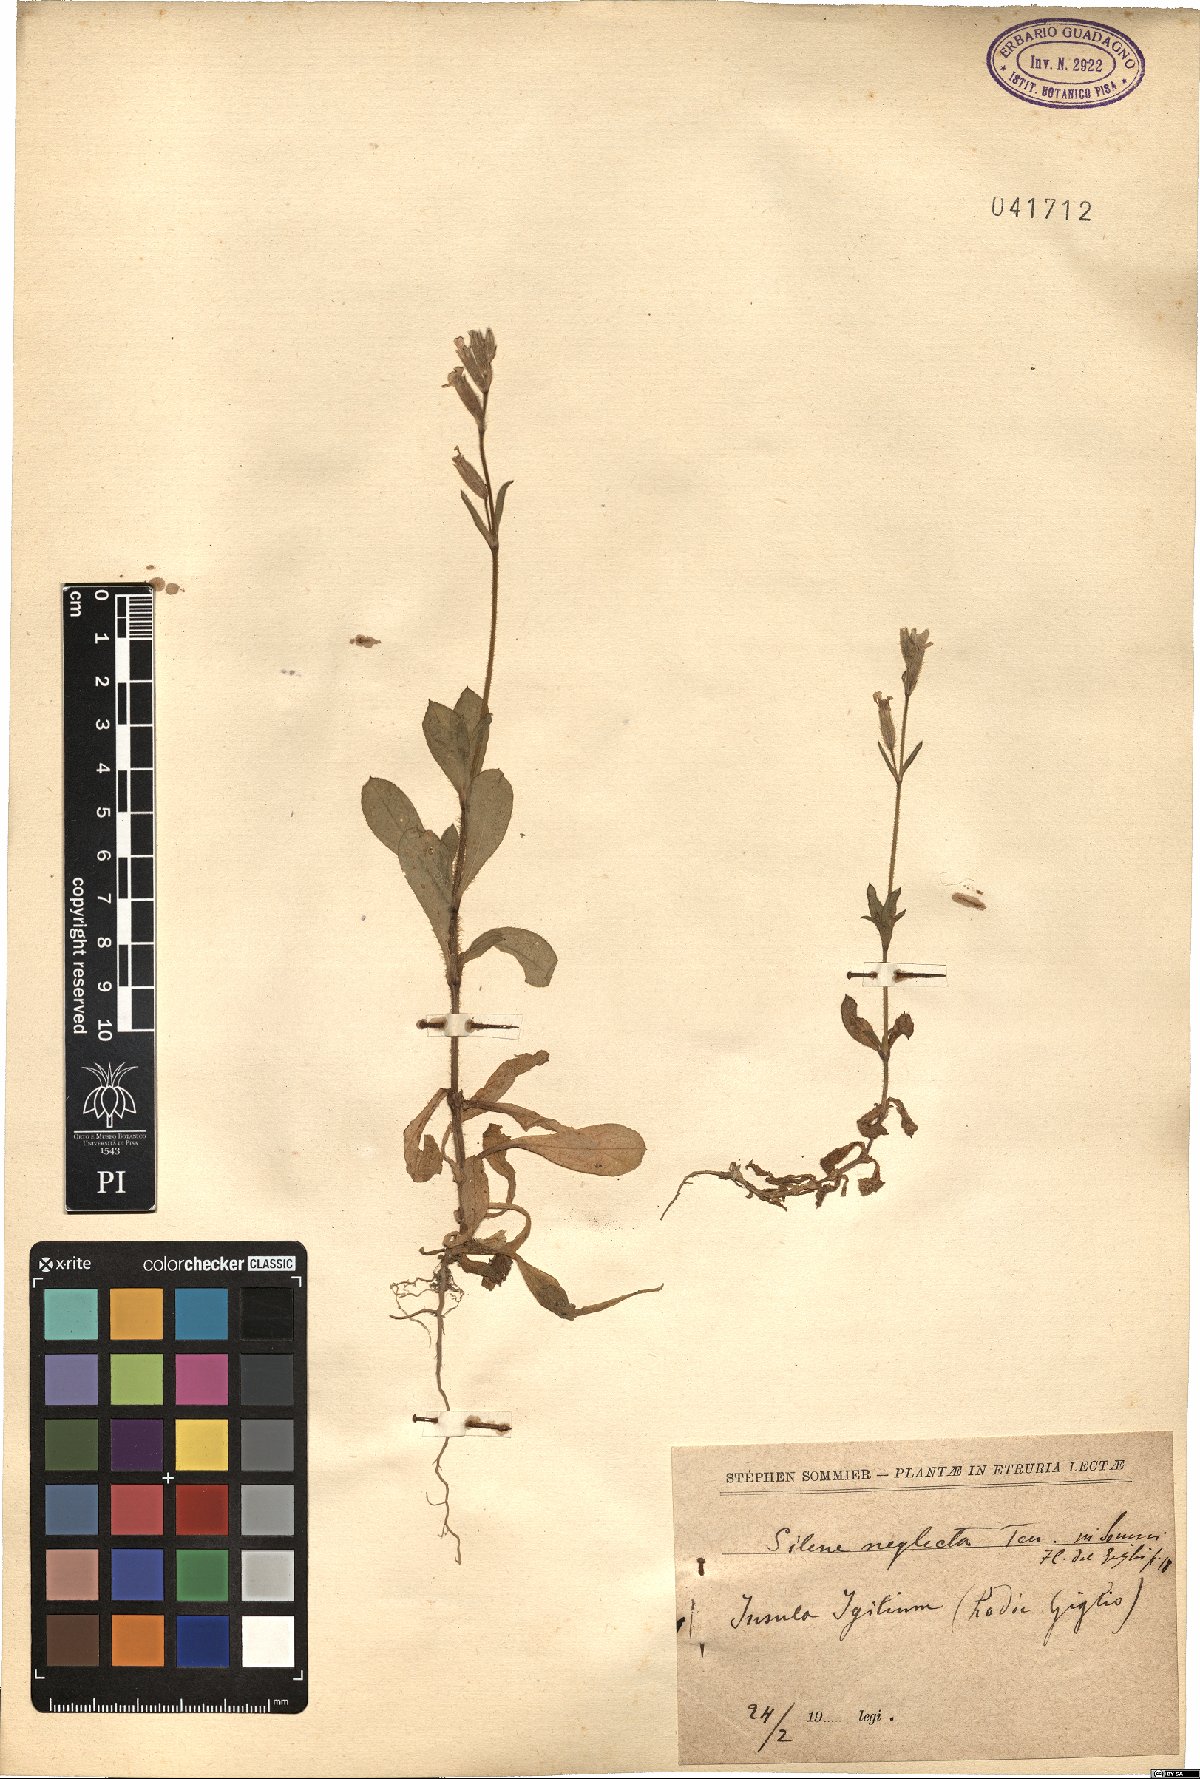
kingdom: Plantae
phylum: Tracheophyta
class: Magnoliopsida
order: Caryophyllales
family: Caryophyllaceae
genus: Silene
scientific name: Silene neglecta
